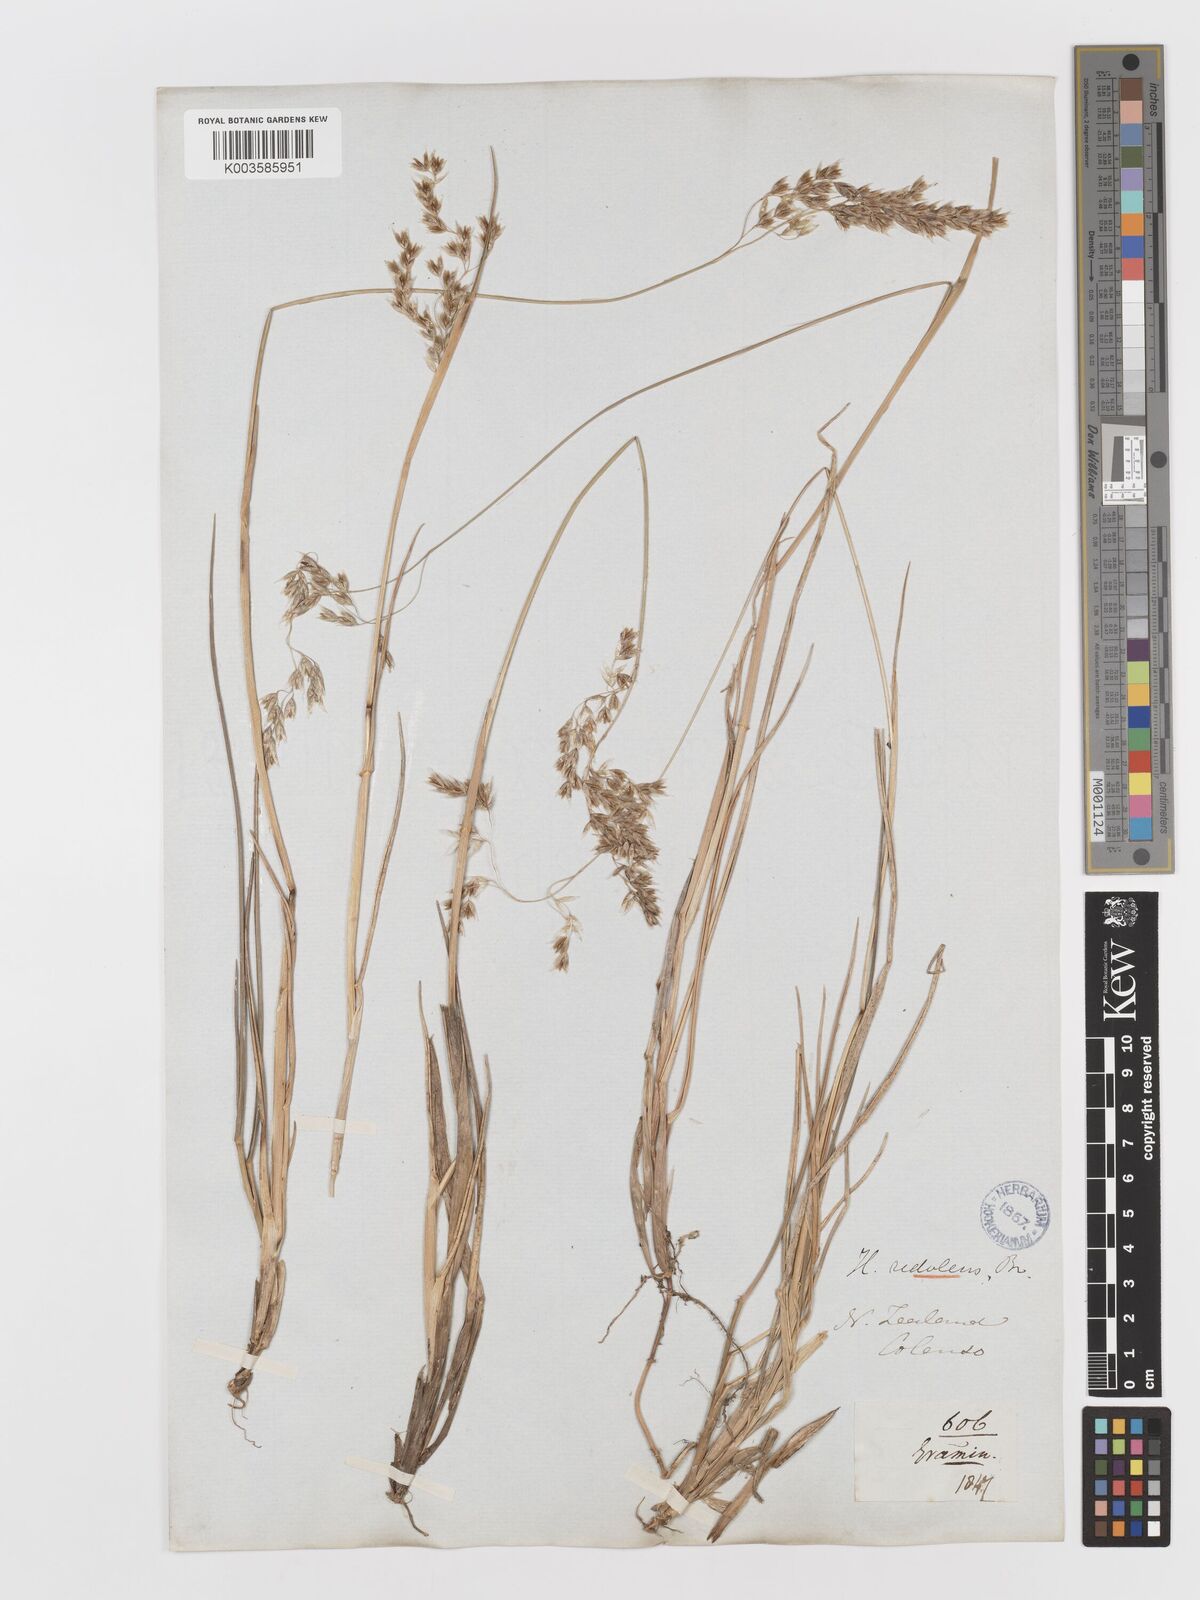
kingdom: Plantae
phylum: Tracheophyta
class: Liliopsida
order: Poales
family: Poaceae
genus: Anthoxanthum
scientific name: Anthoxanthum redolens
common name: Sweet holy grass
